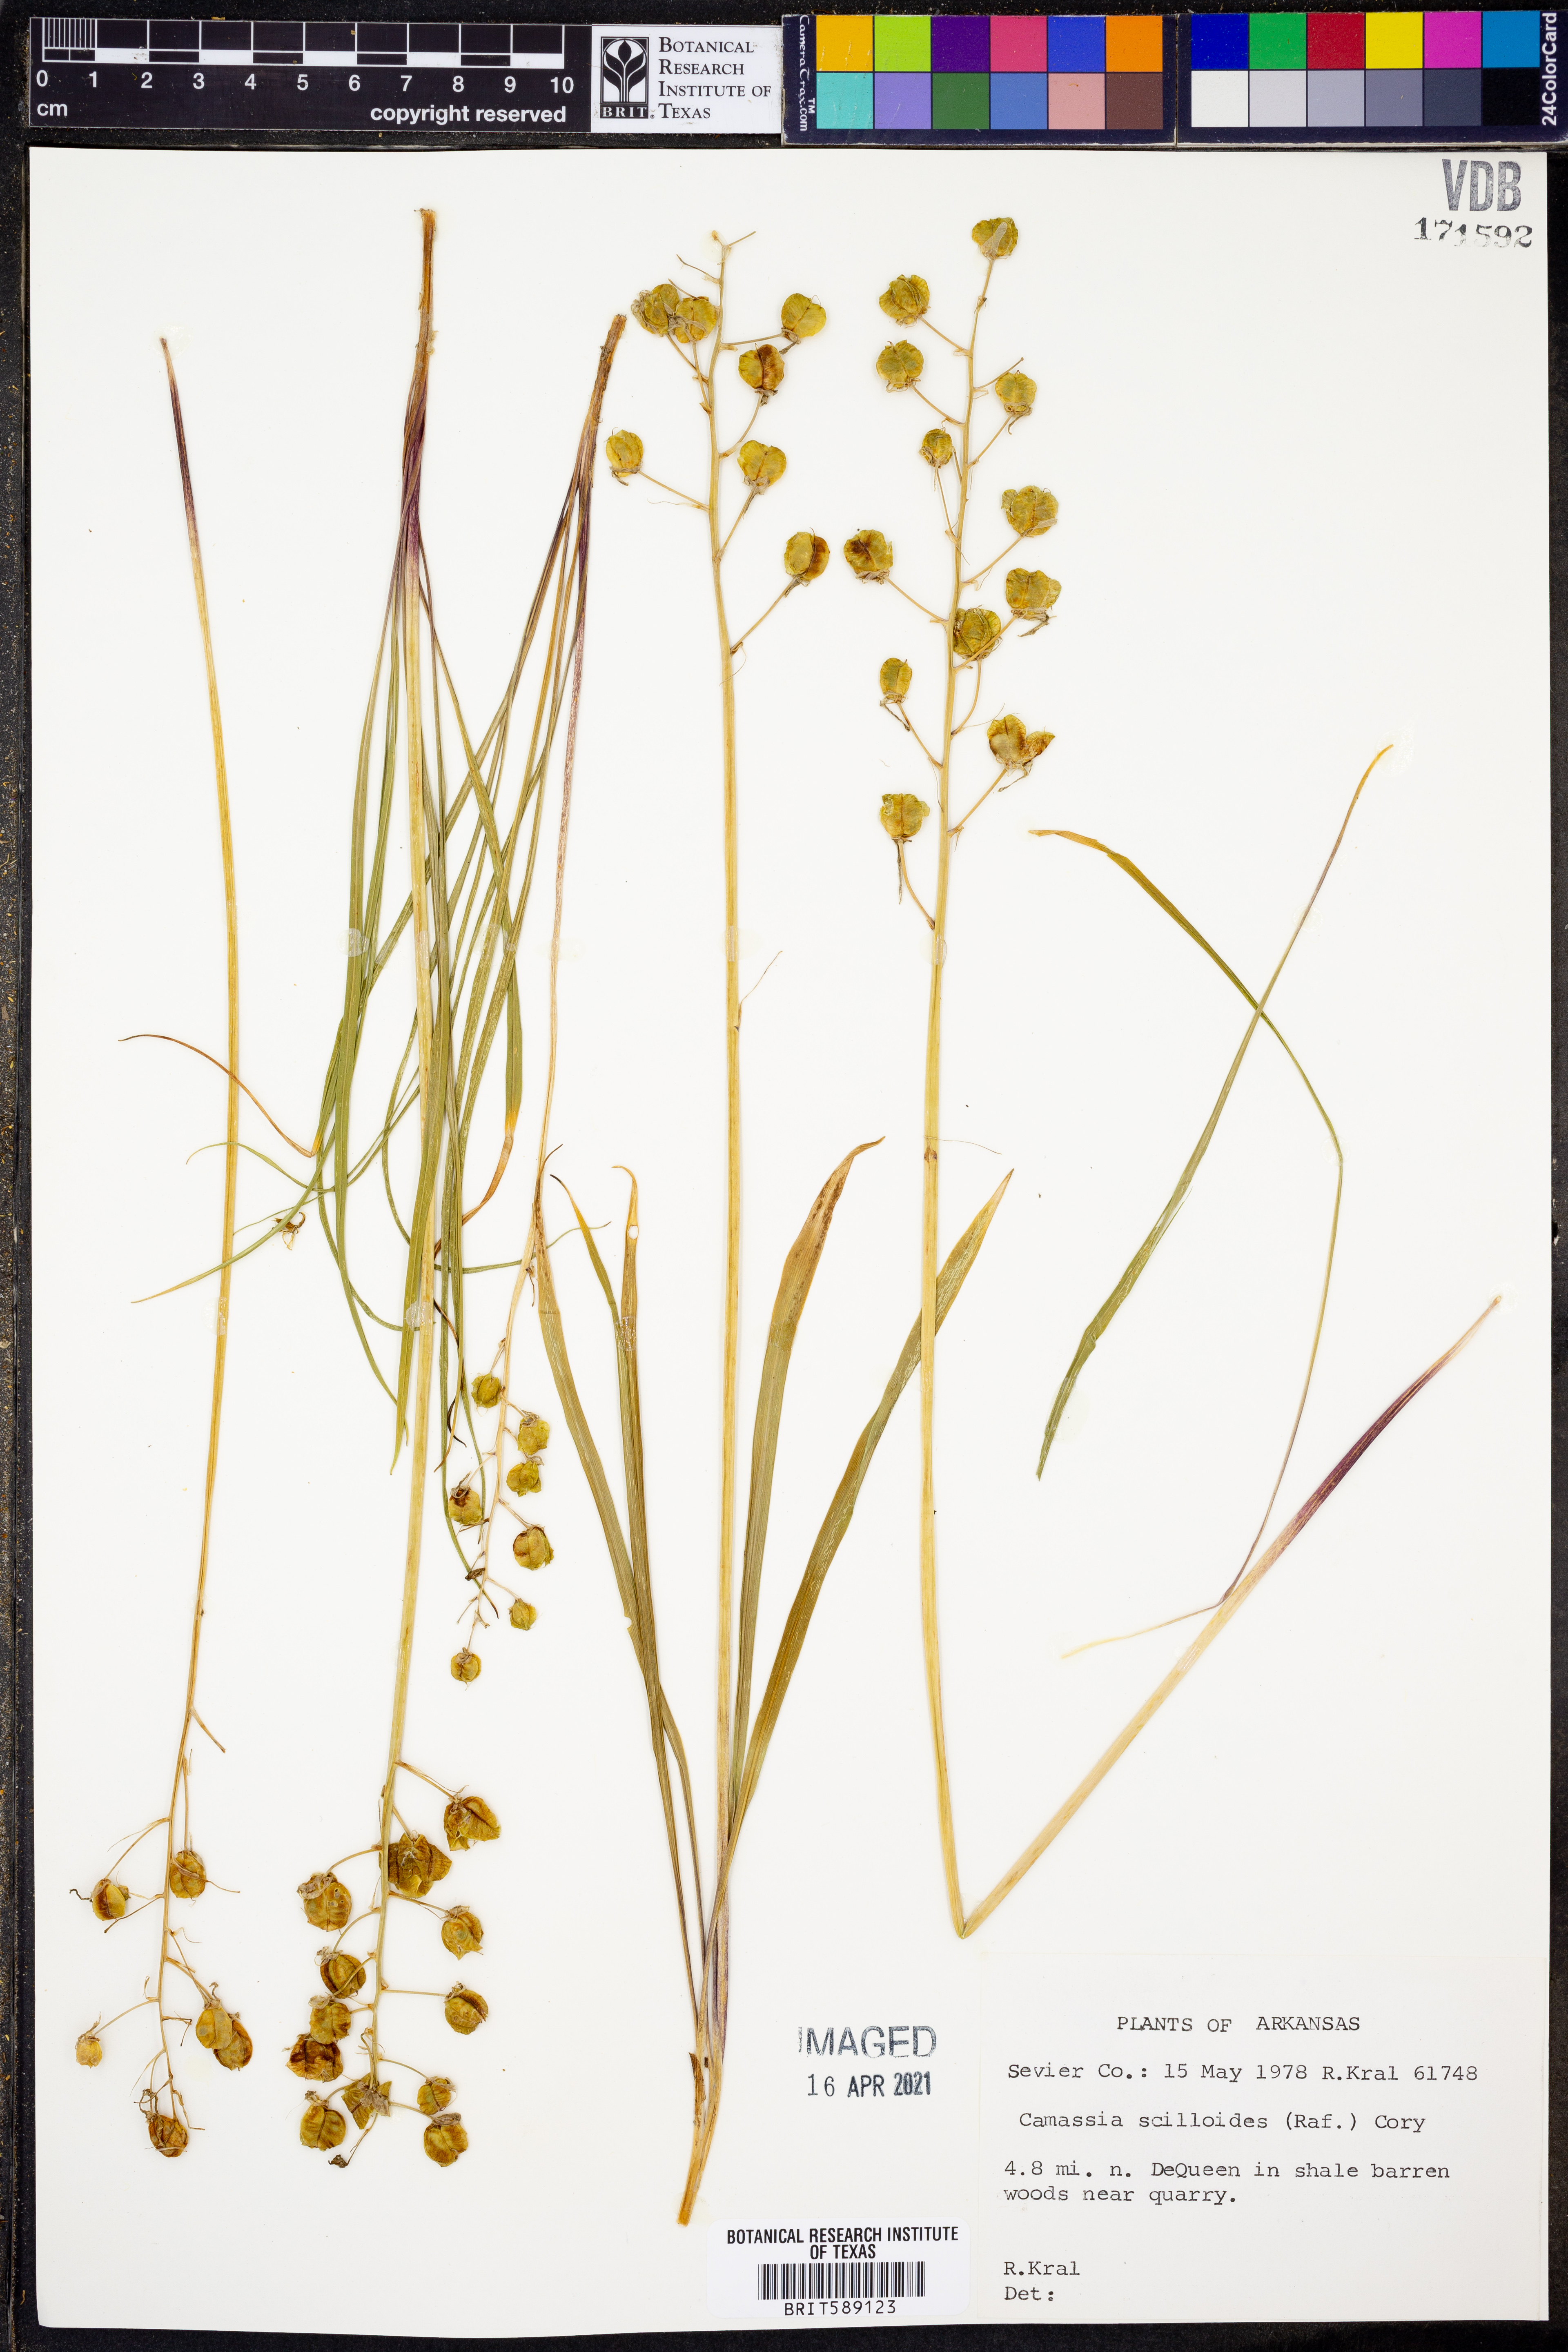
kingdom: Plantae
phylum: Tracheophyta
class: Liliopsida
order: Asparagales
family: Asparagaceae
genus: Camassia
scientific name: Camassia scilloides
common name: Wild hyacinth
